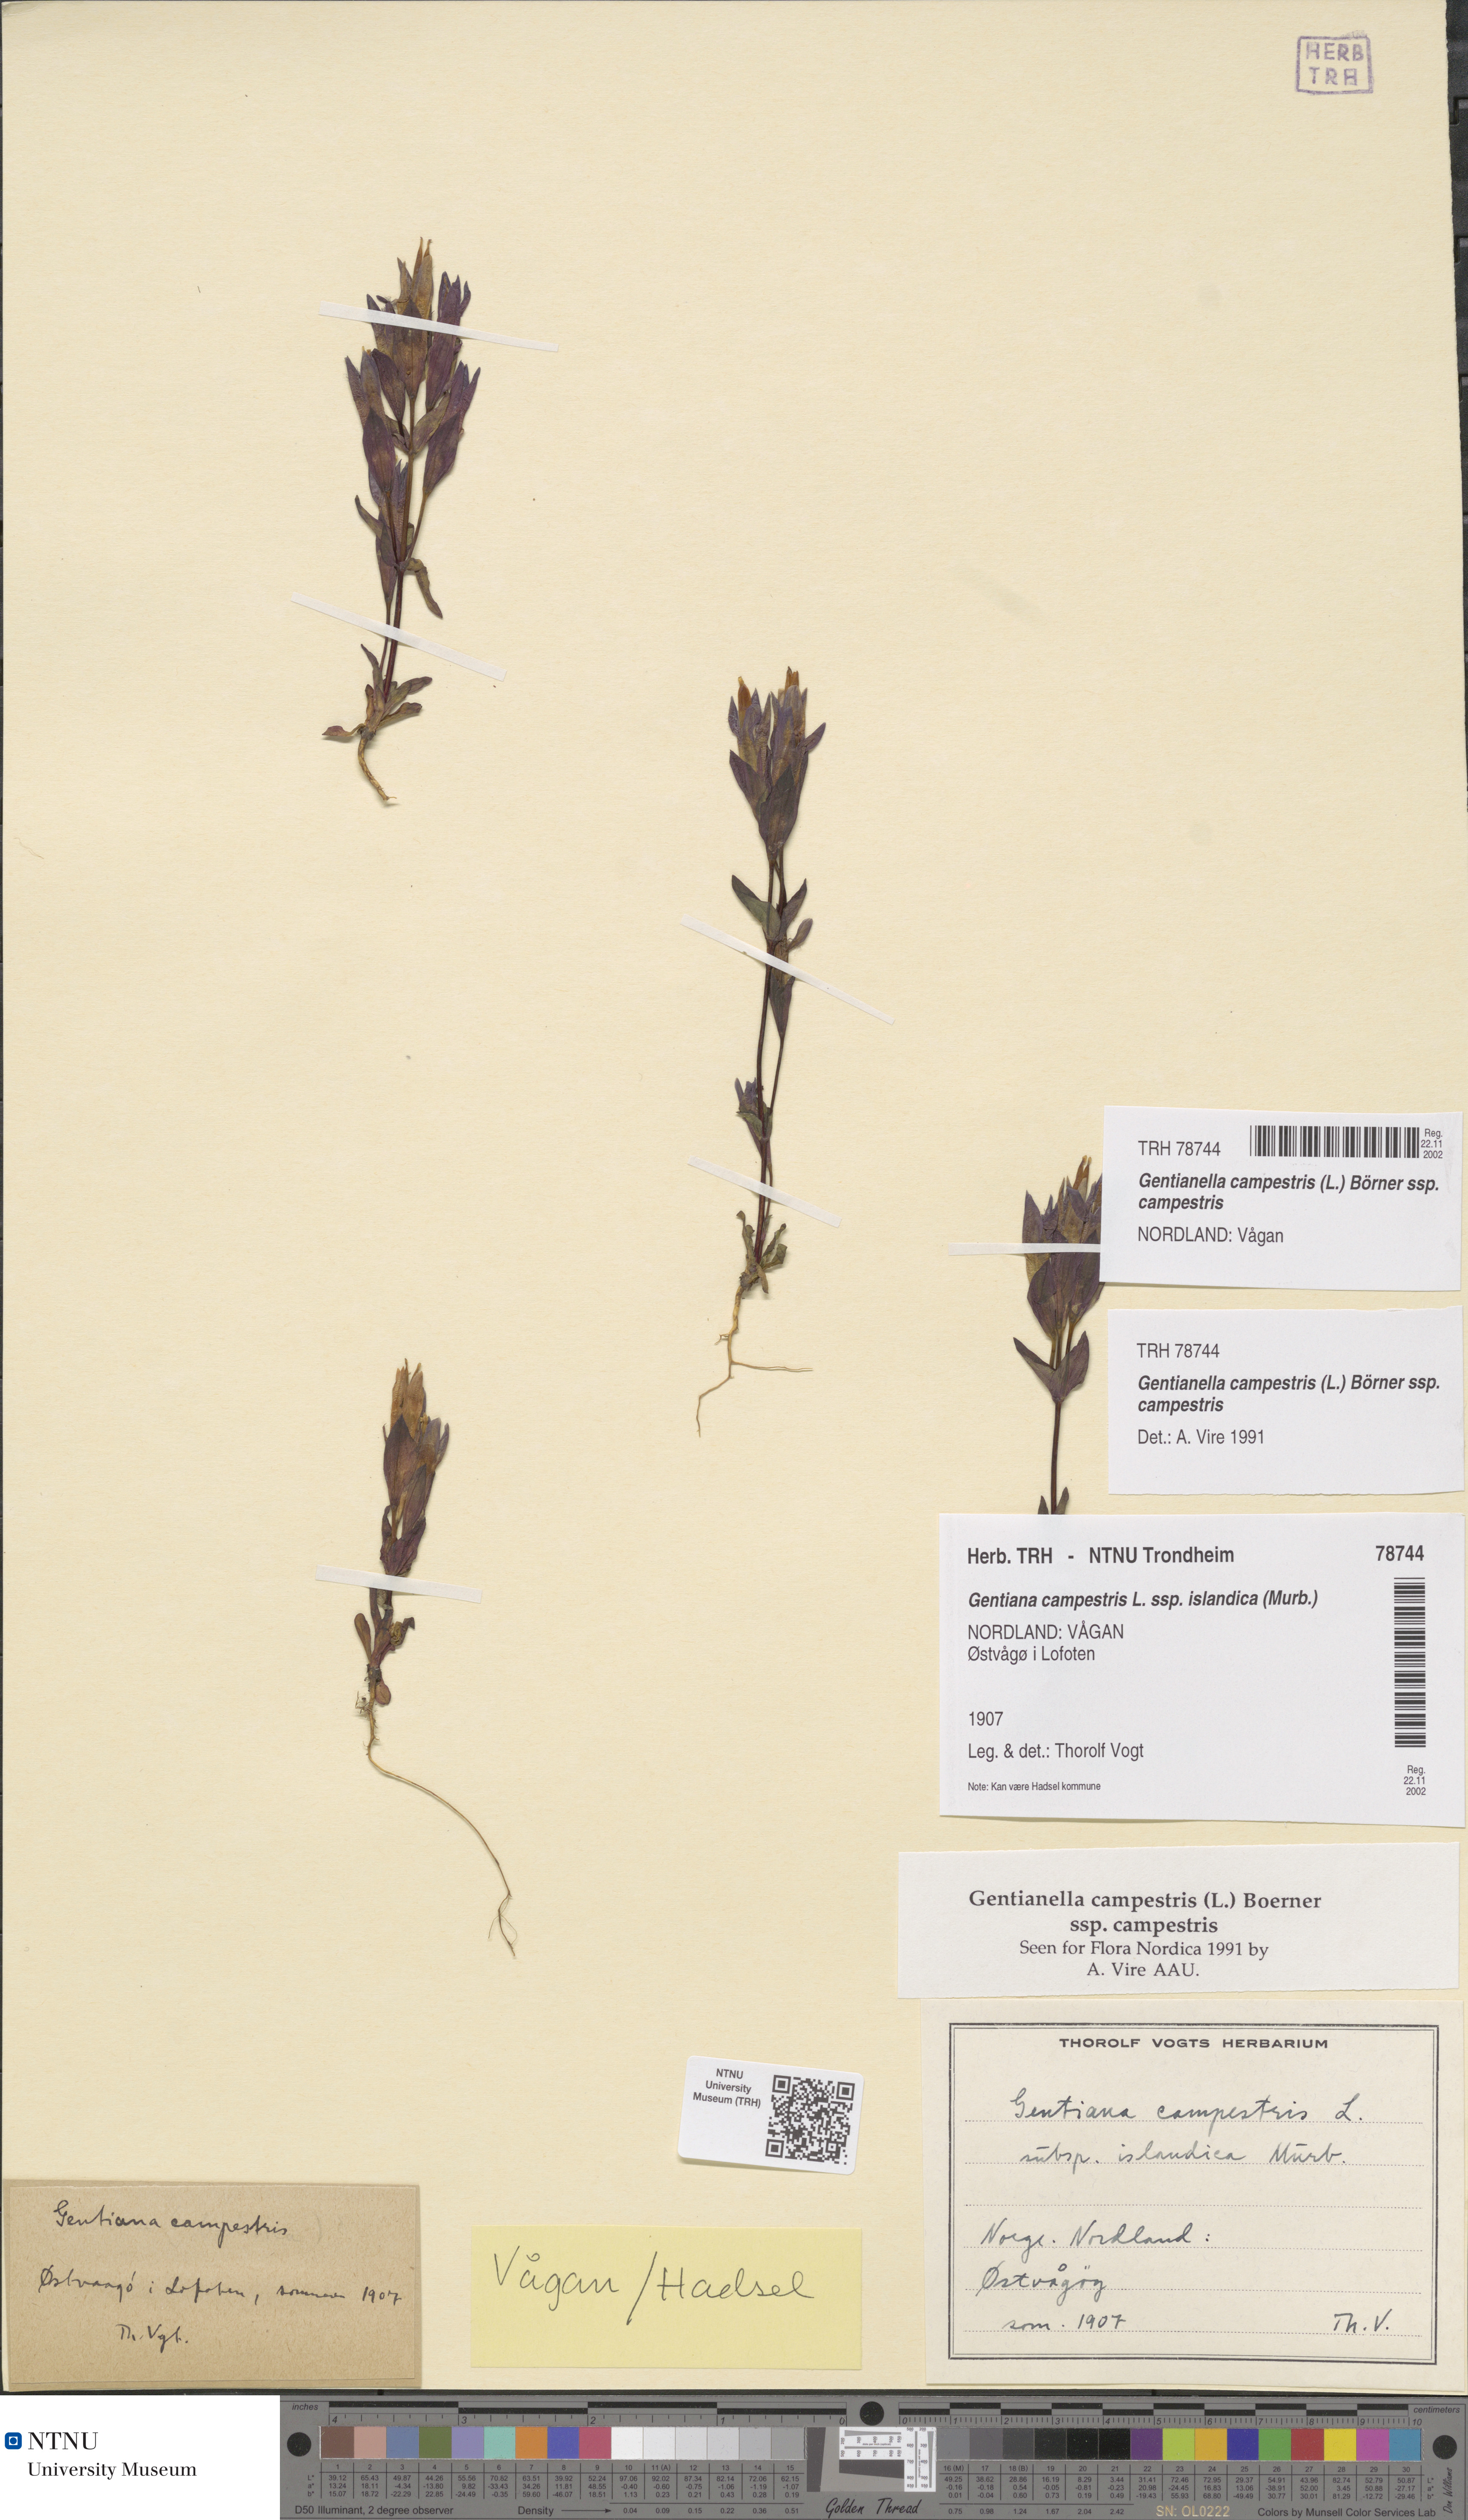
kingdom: Plantae
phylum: Tracheophyta
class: Magnoliopsida
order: Gentianales
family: Gentianaceae
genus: Gentianella
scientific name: Gentianella campestris
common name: Field gentian
